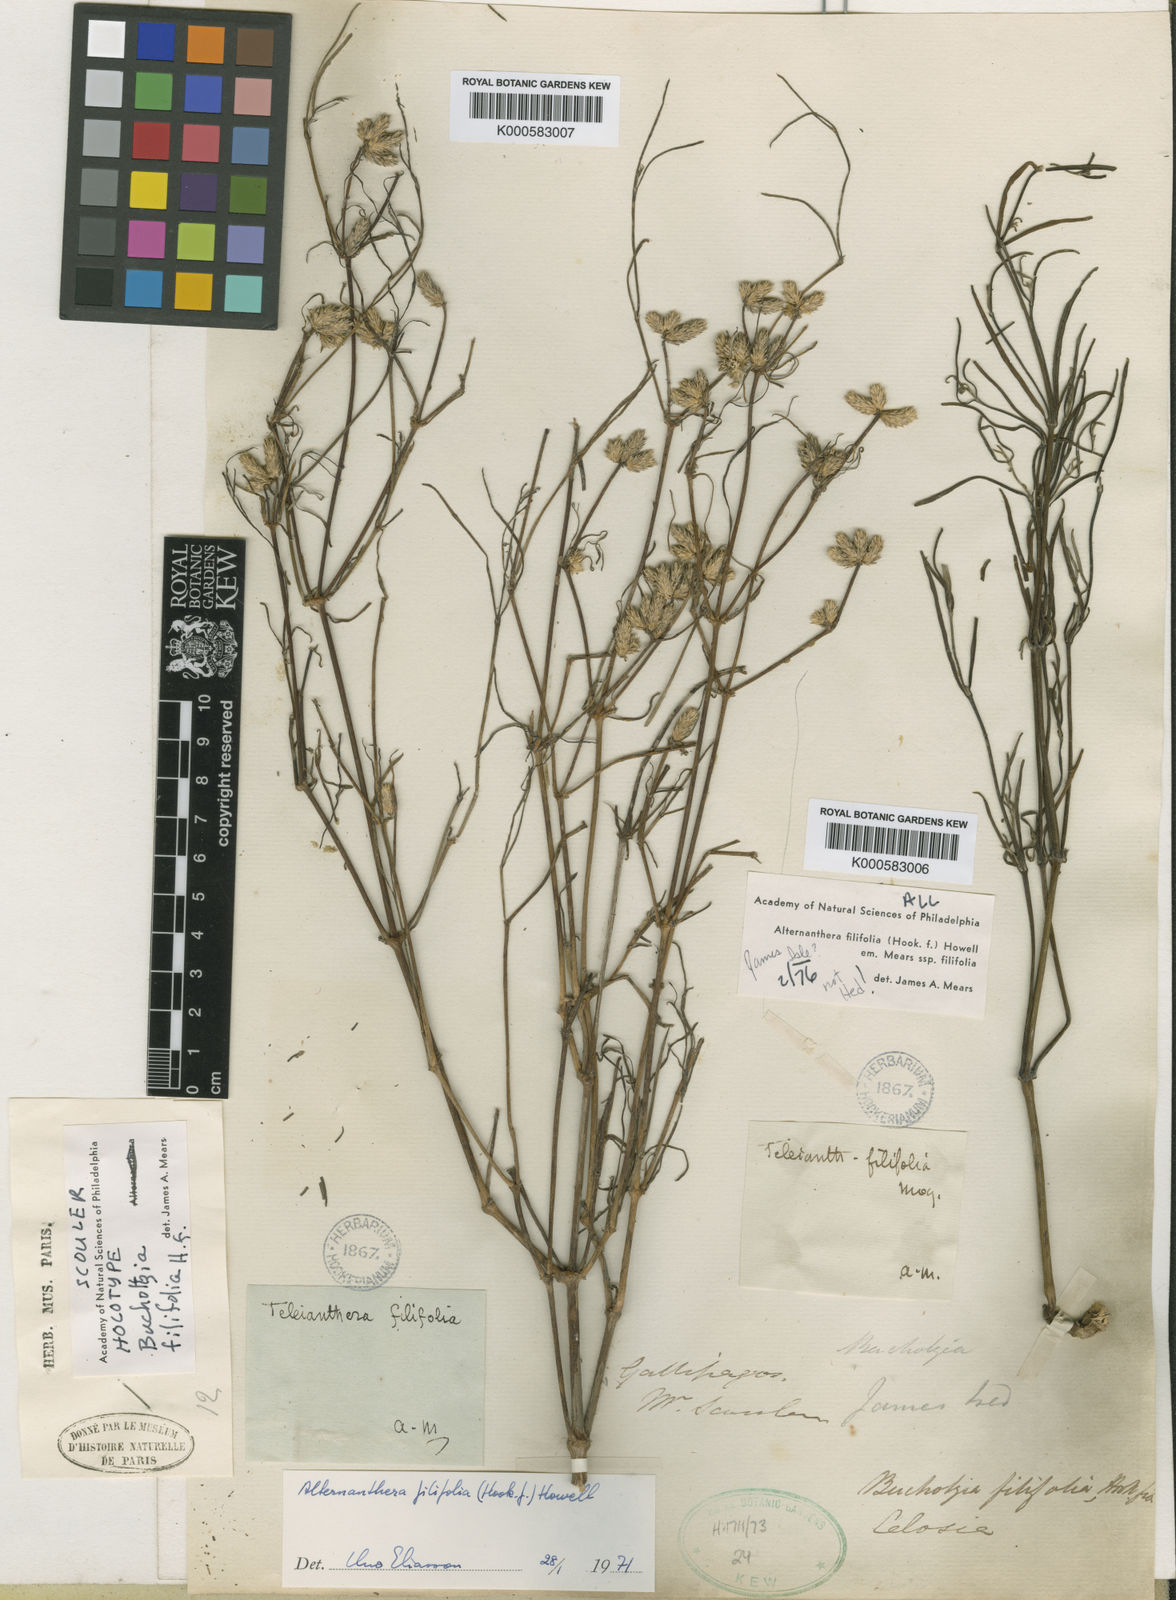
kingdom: Plantae
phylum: Tracheophyta
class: Magnoliopsida
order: Caryophyllales
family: Amaranthaceae
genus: Alternanthera
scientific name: Alternanthera filifolia
